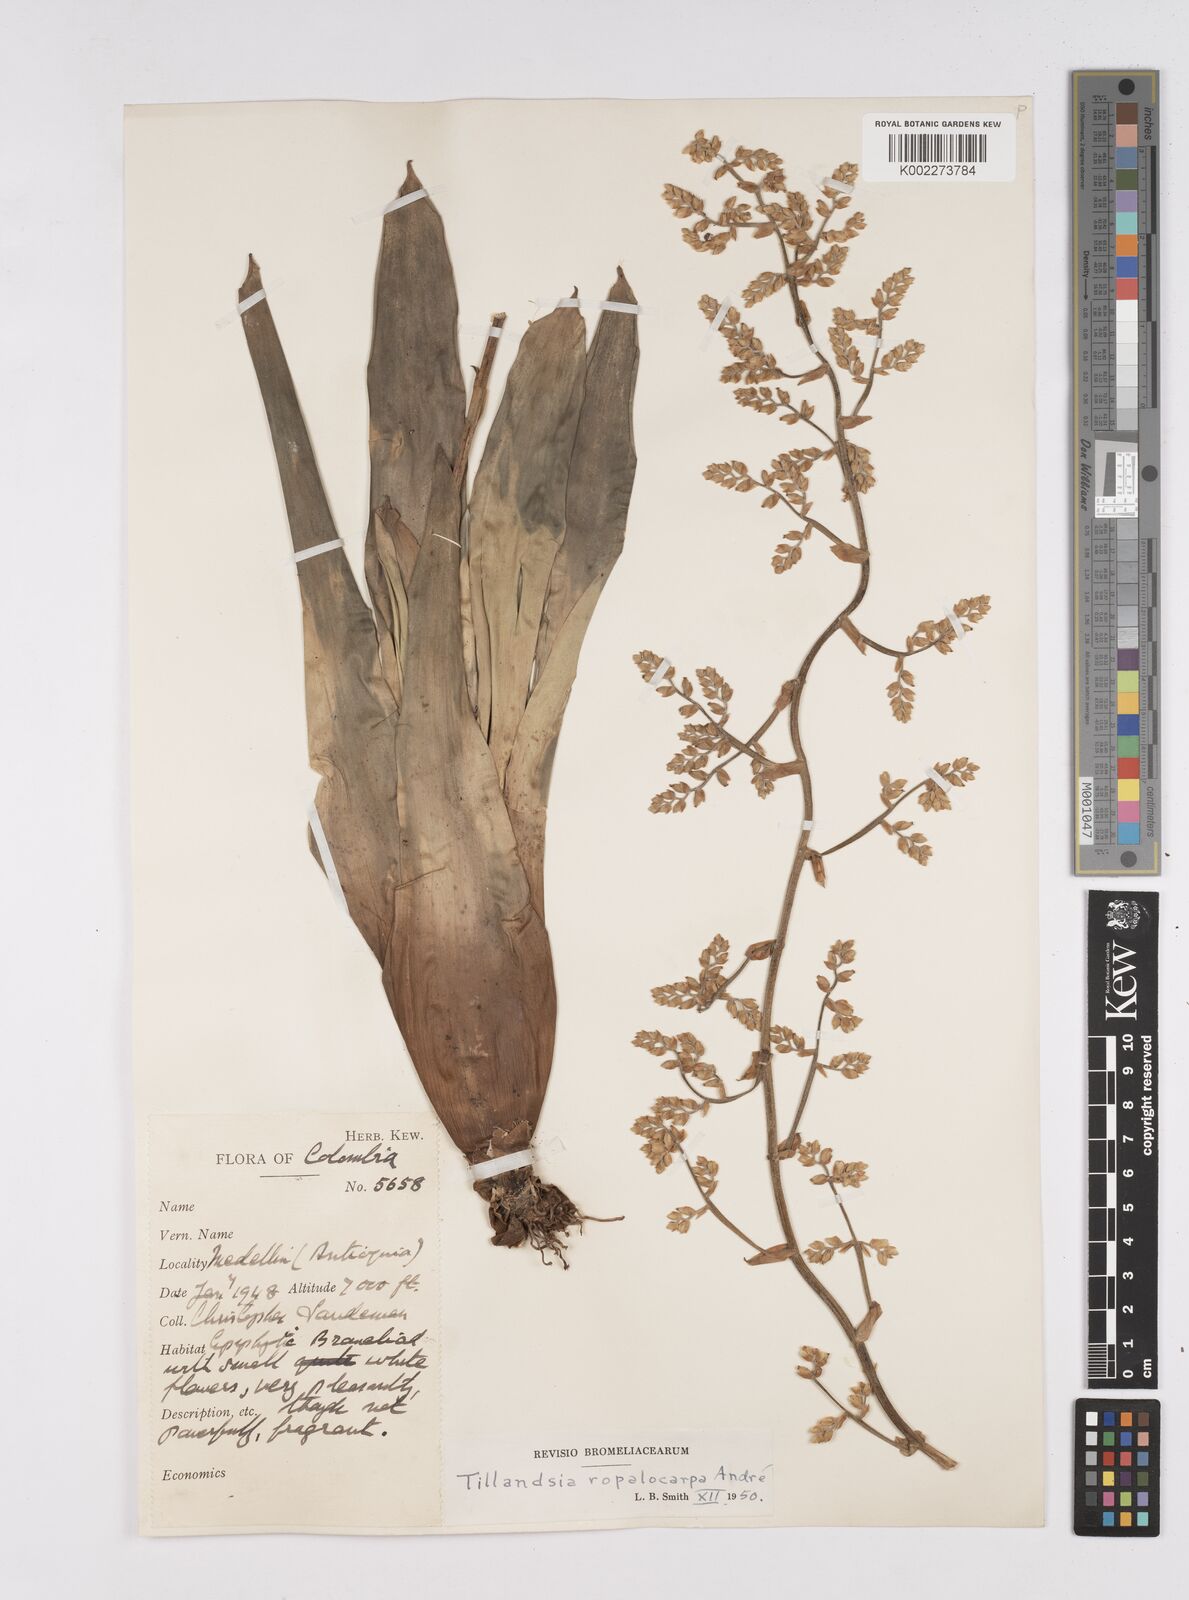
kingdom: Plantae
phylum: Tracheophyta
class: Liliopsida
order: Poales
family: Bromeliaceae
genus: Racinaea
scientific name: Racinaea ropalocarpa
